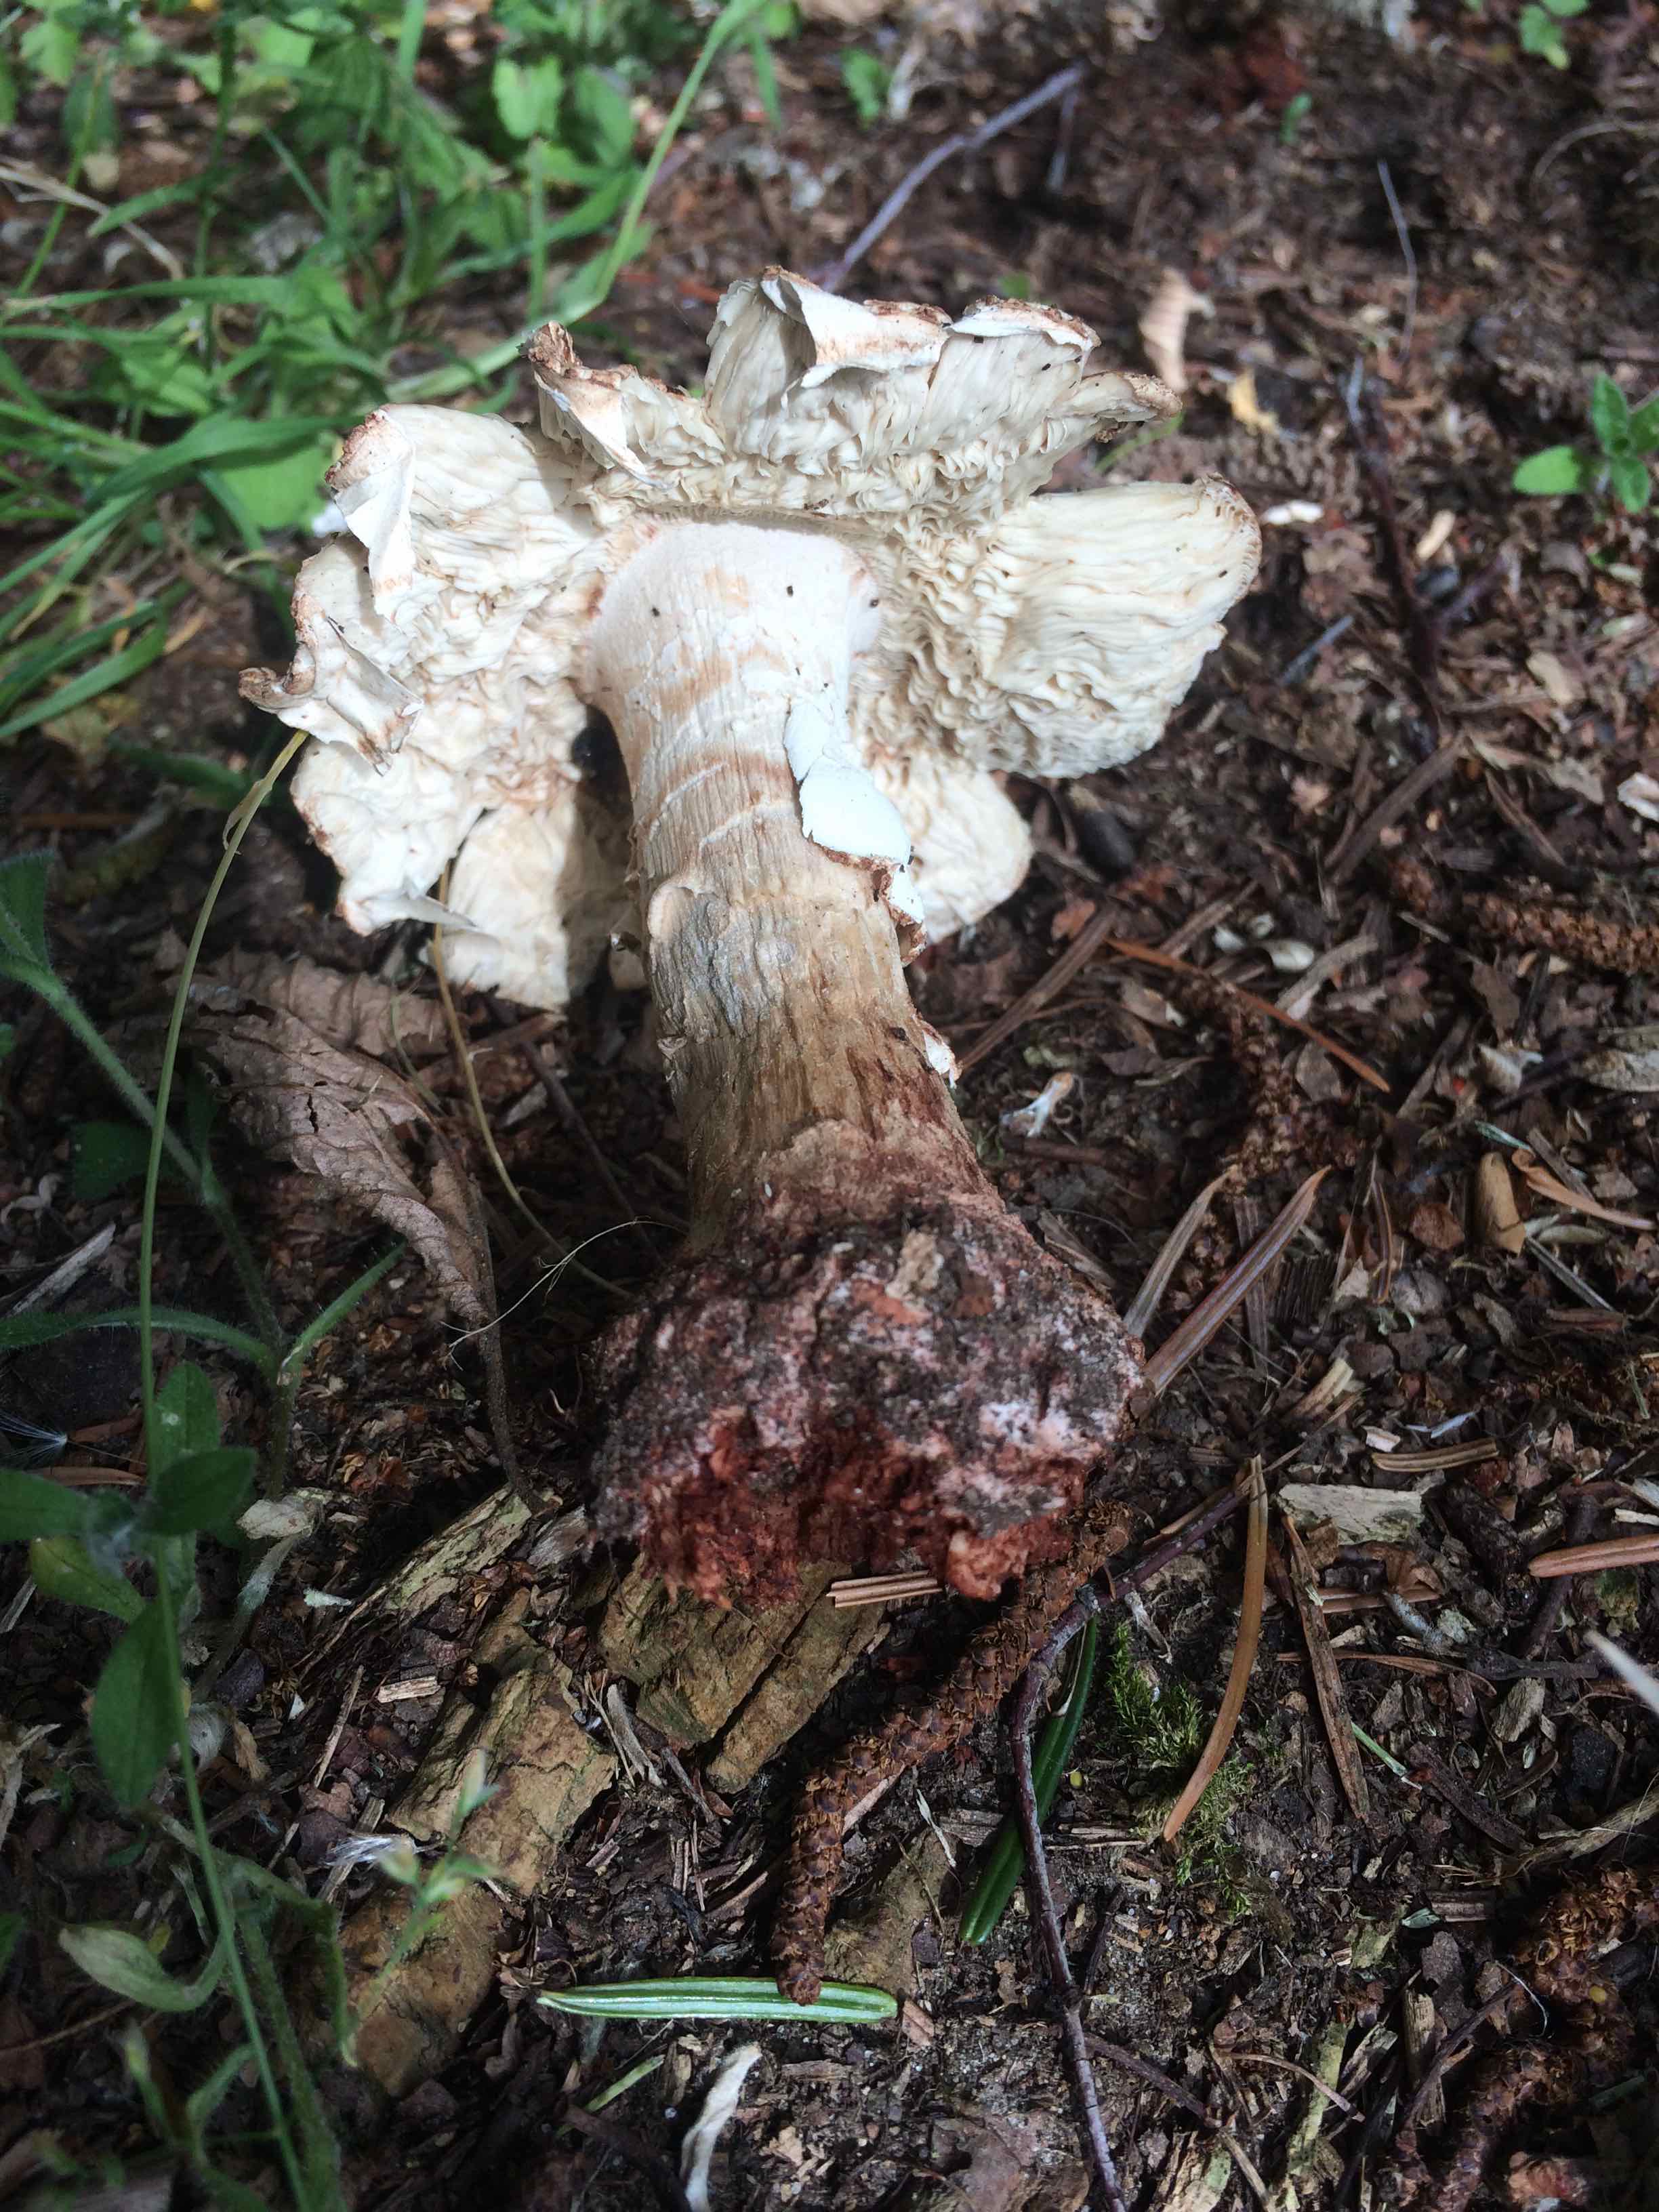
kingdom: Fungi
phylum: Basidiomycota
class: Agaricomycetes
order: Agaricales
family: Amanitaceae
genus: Amanita
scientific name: Amanita rubescens
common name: rødmende fluesvamp
